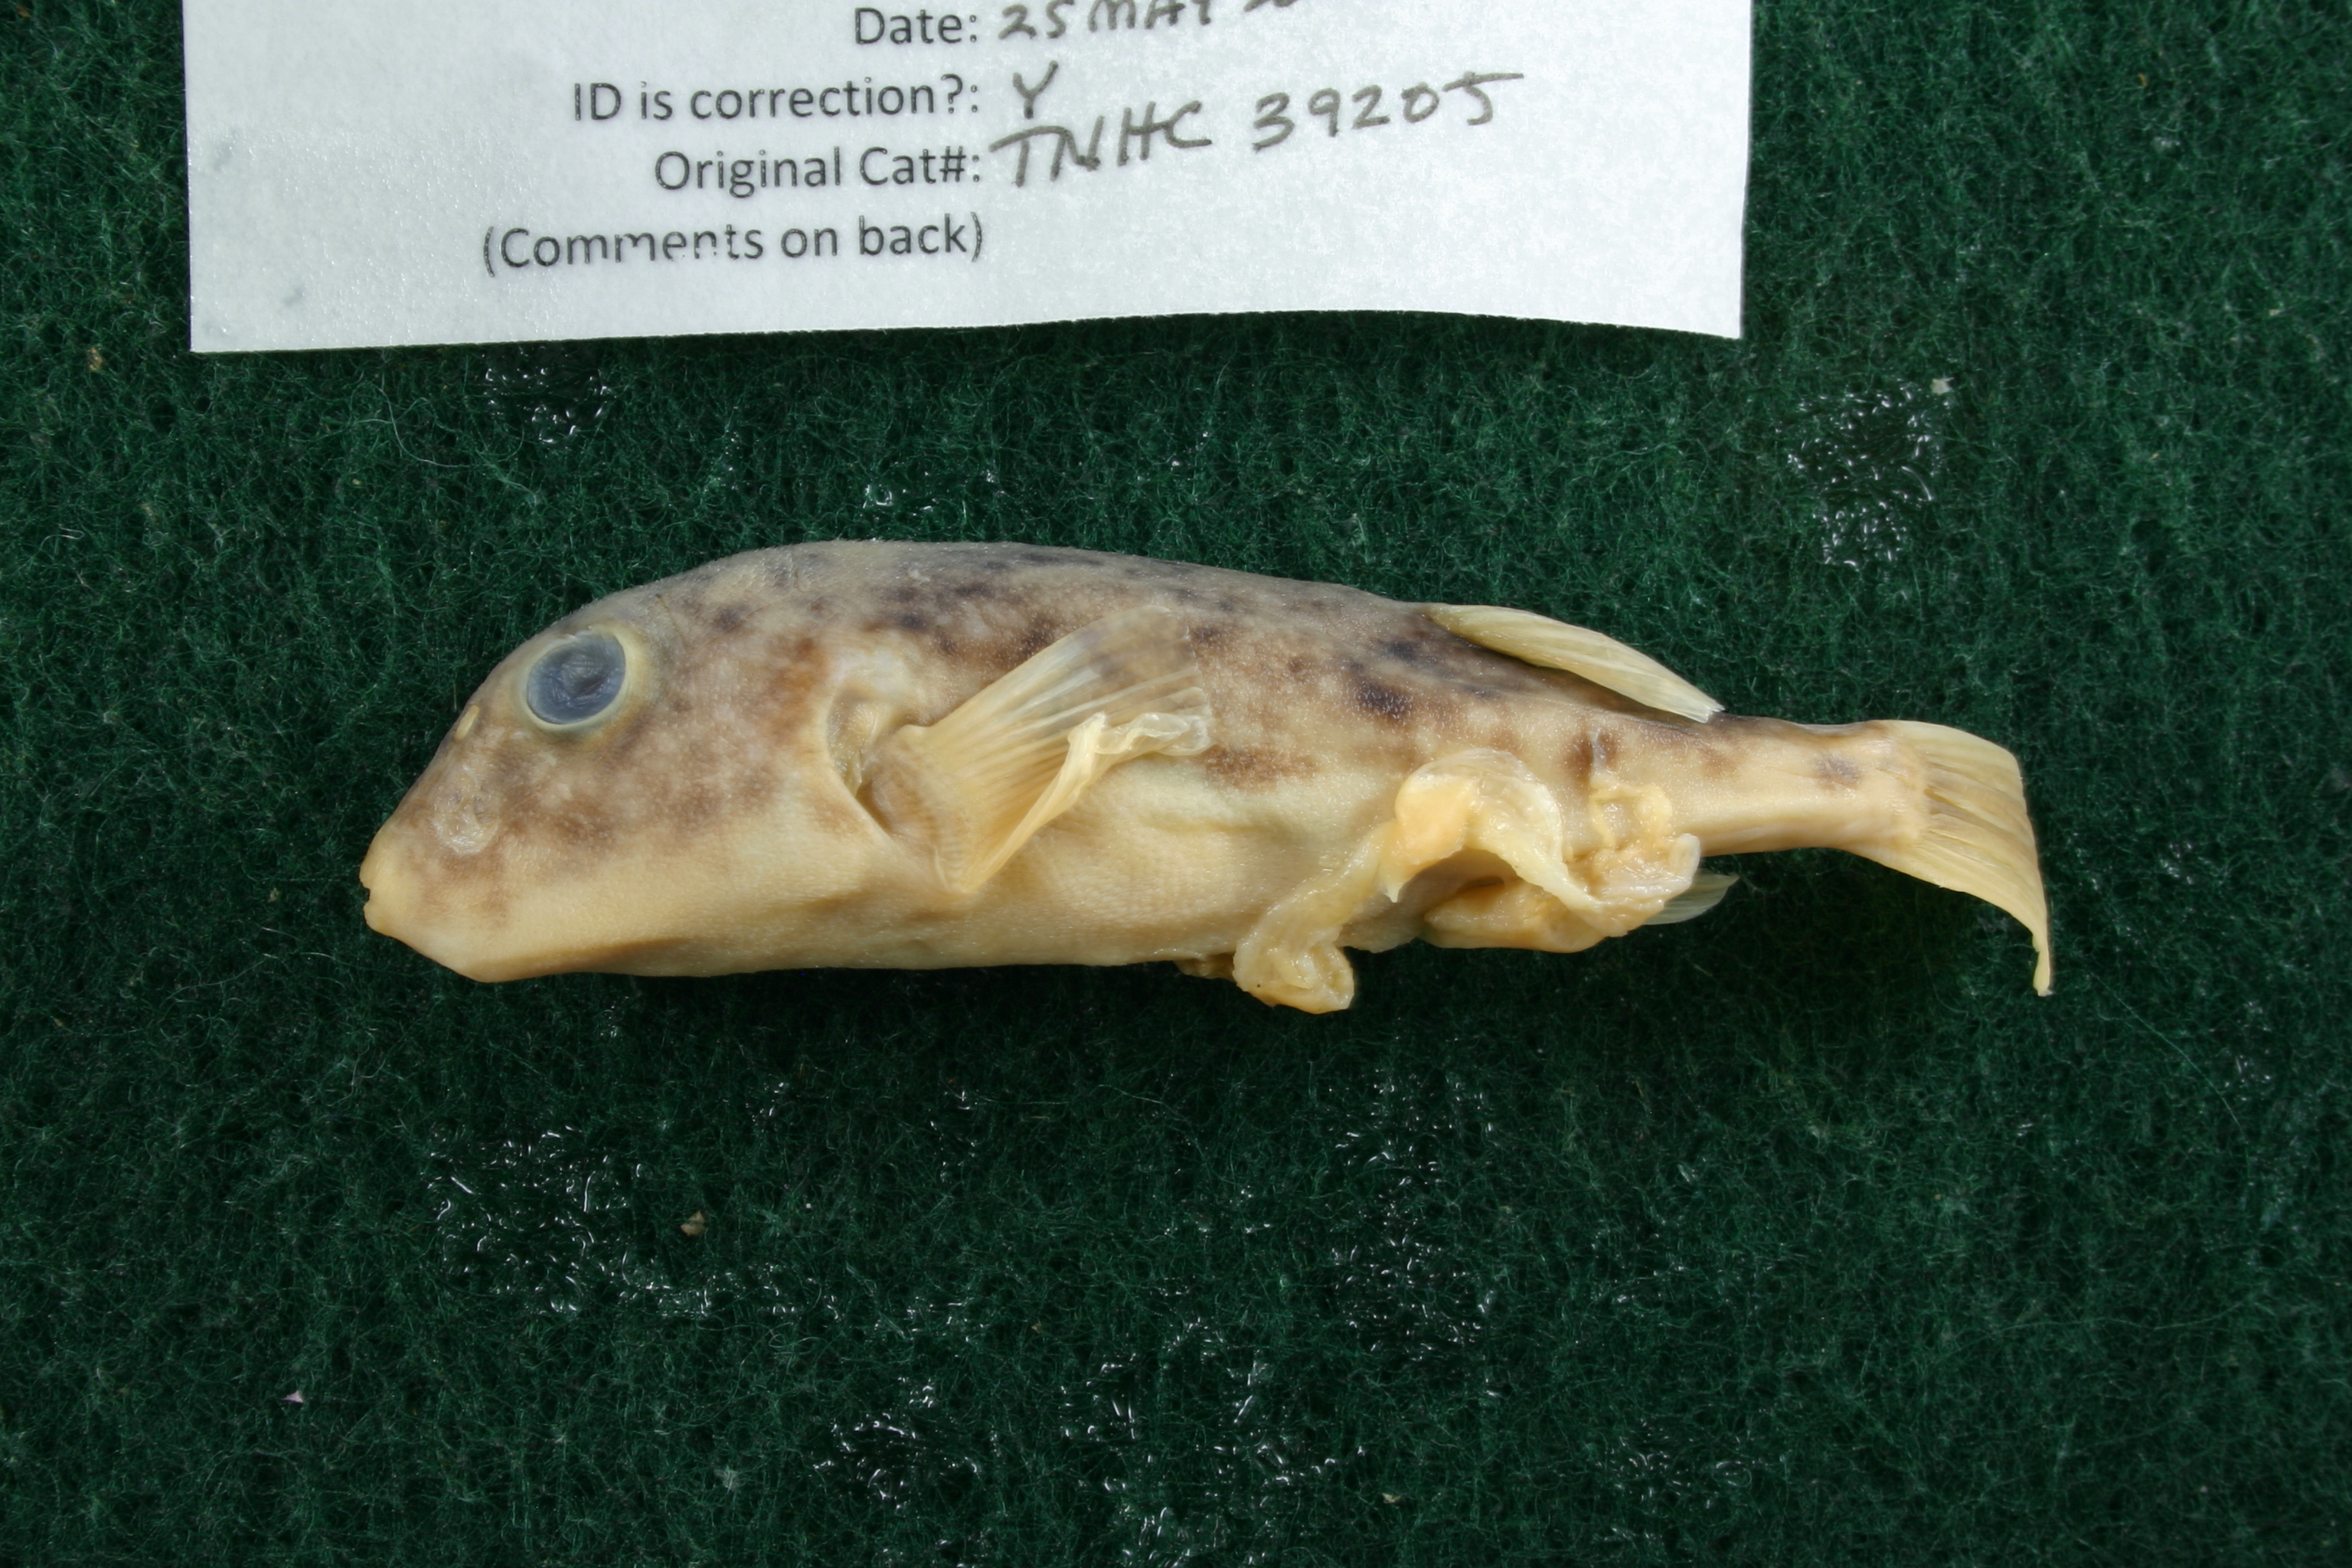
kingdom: Animalia
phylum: Chordata
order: Tetraodontiformes
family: Tetraodontidae
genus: Sphoeroides
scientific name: Sphoeroides parvus
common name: Least puffer
